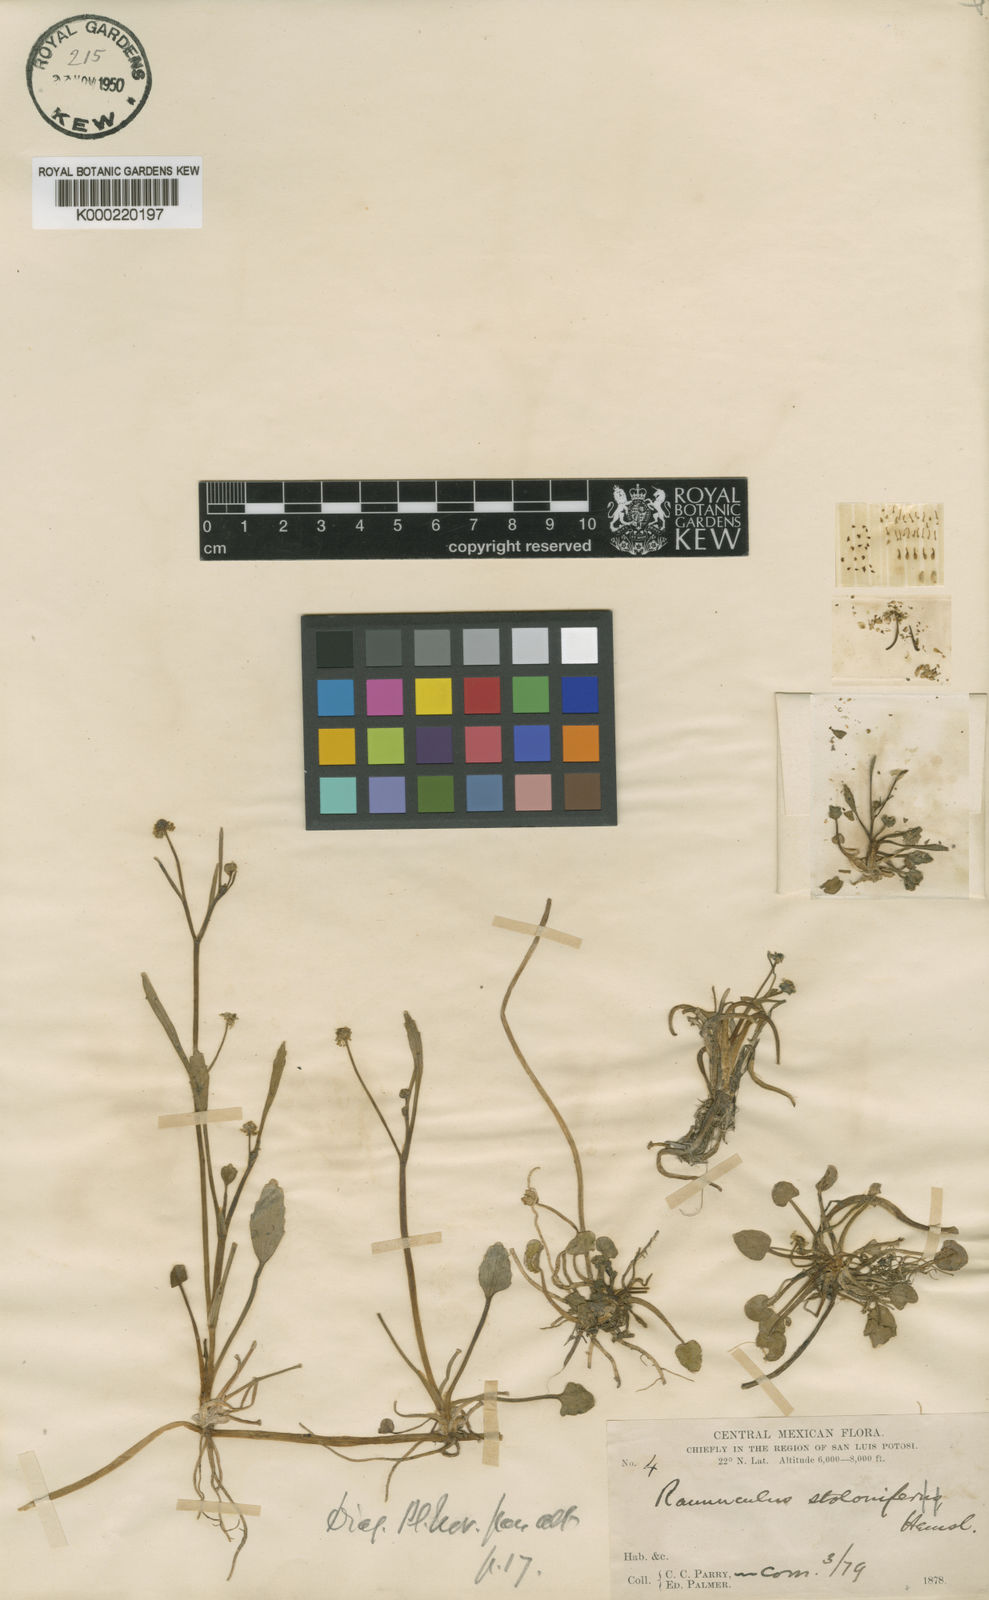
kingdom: Plantae
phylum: Tracheophyta
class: Magnoliopsida
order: Ranunculales
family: Ranunculaceae
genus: Ranunculus
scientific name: Ranunculus hydrocharoides
